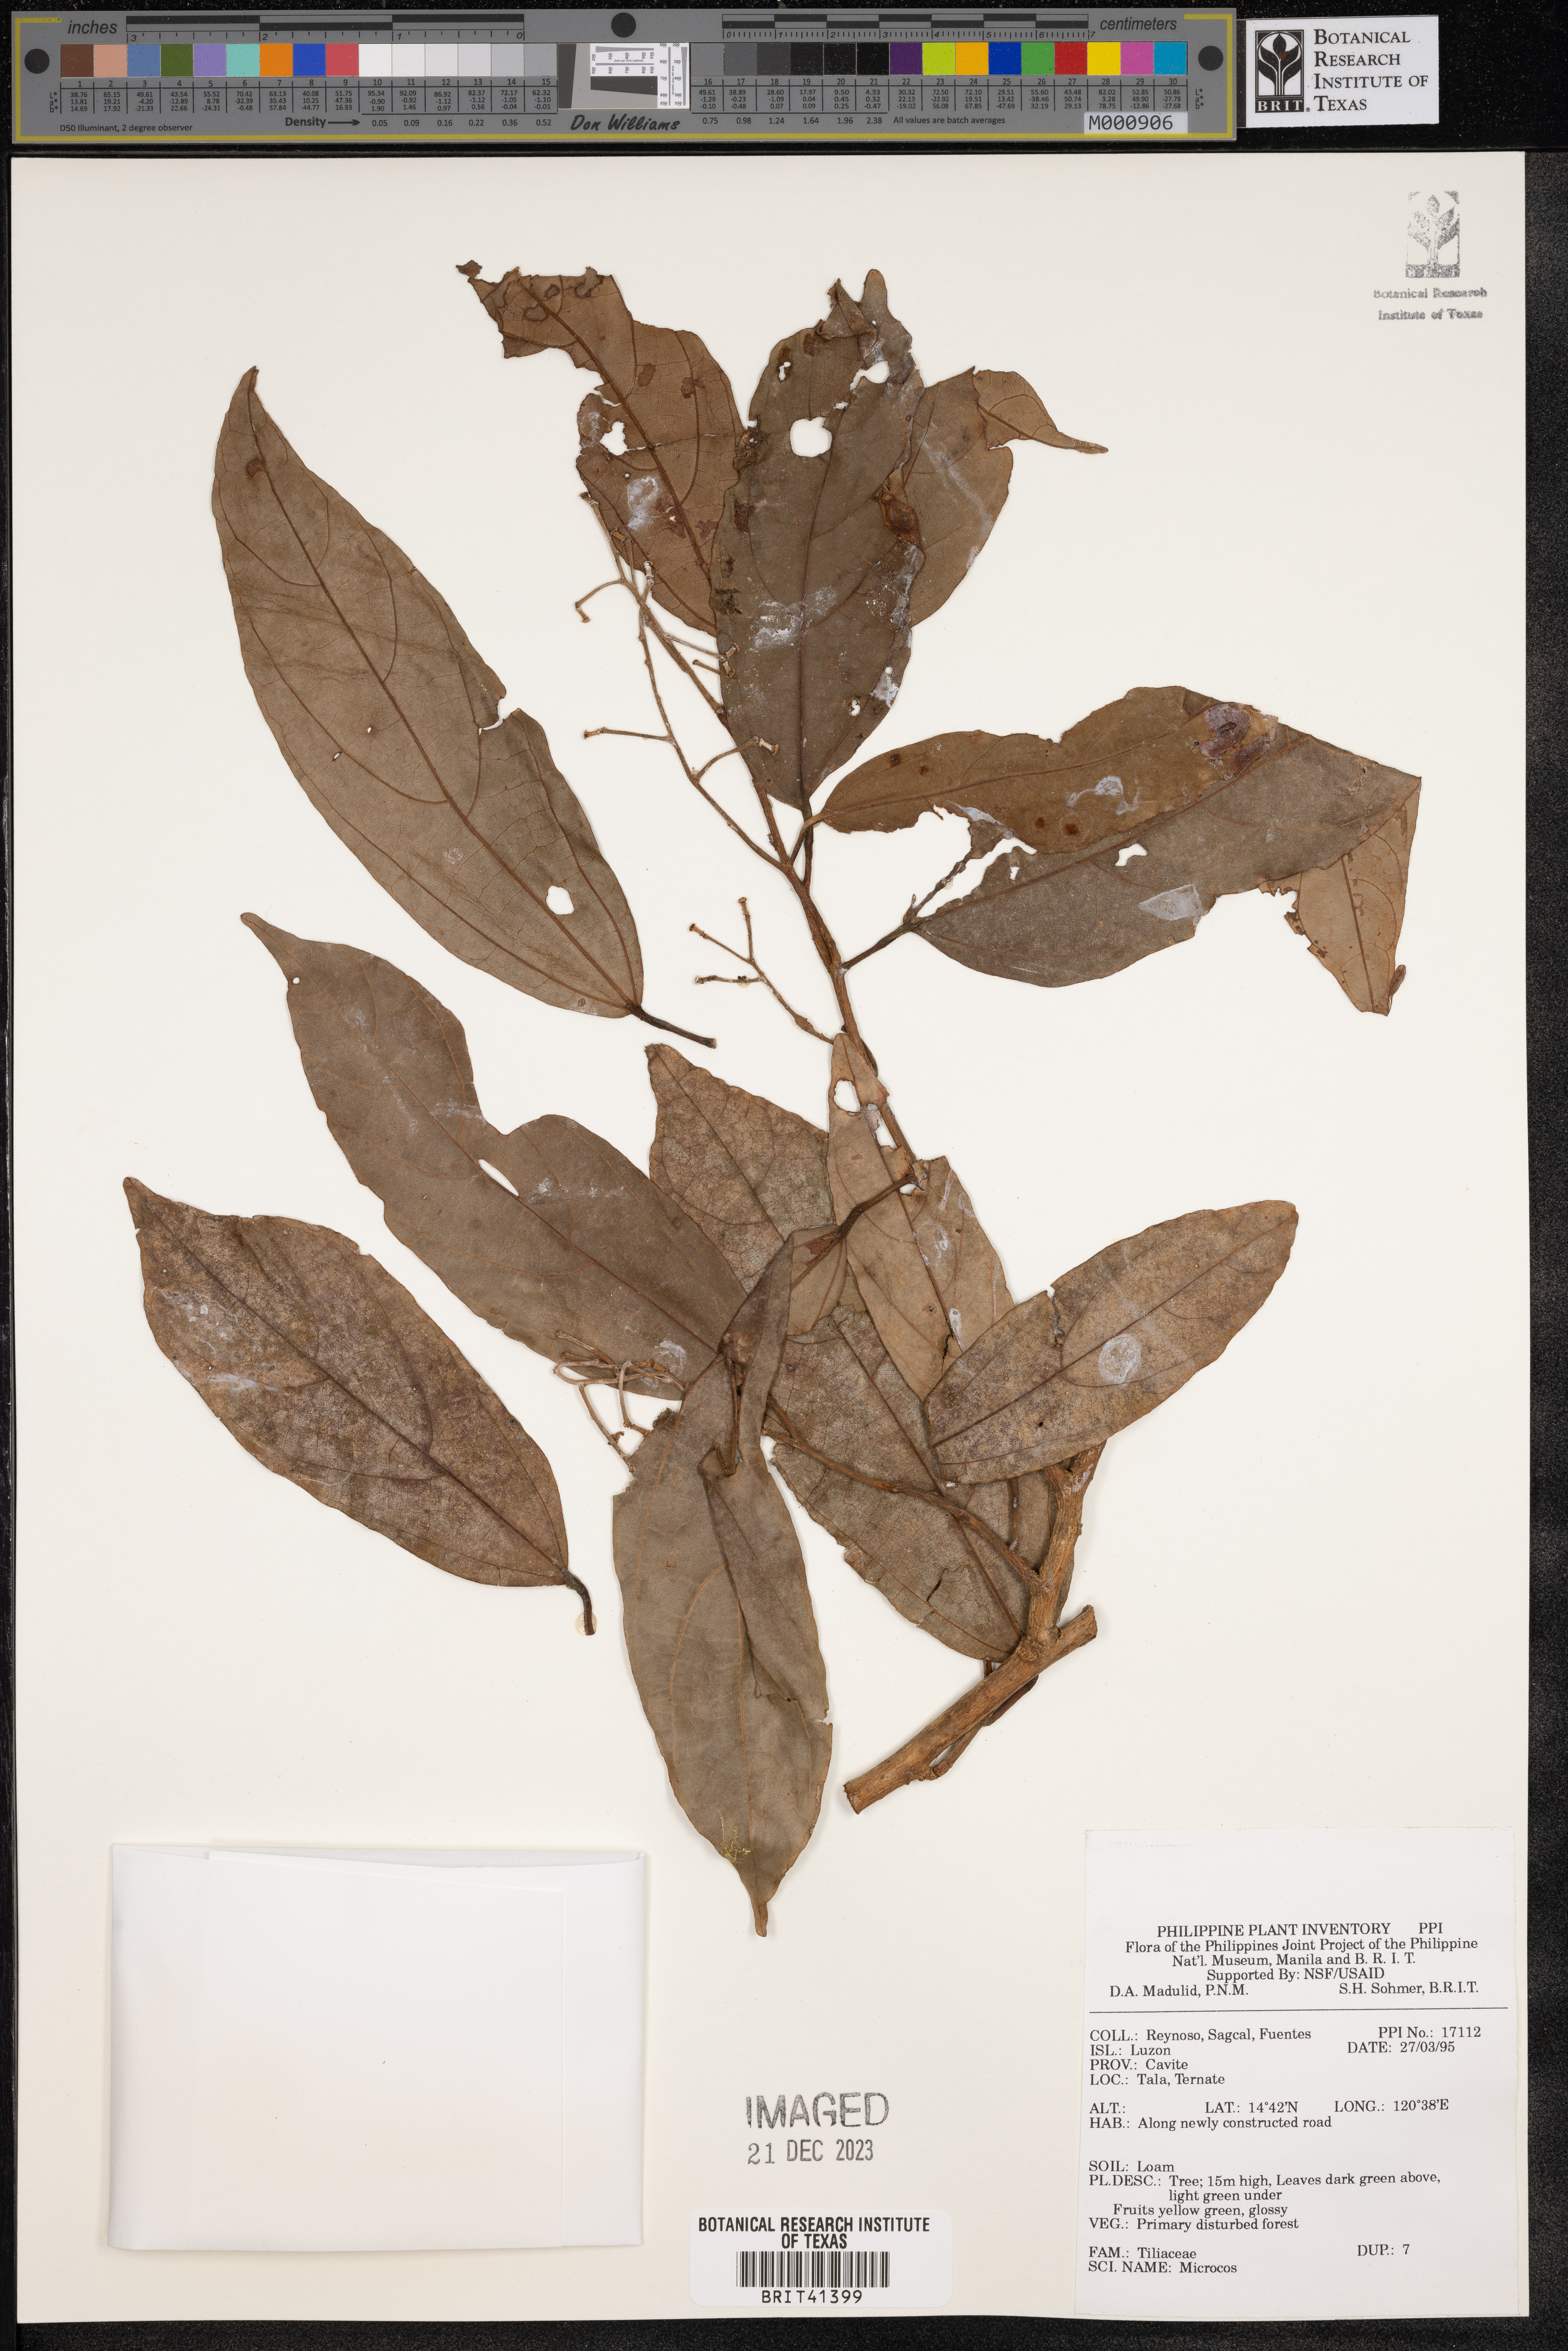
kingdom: Plantae
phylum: Tracheophyta
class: Magnoliopsida
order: Malvales
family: Malvaceae
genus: Microcos
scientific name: Microcos
